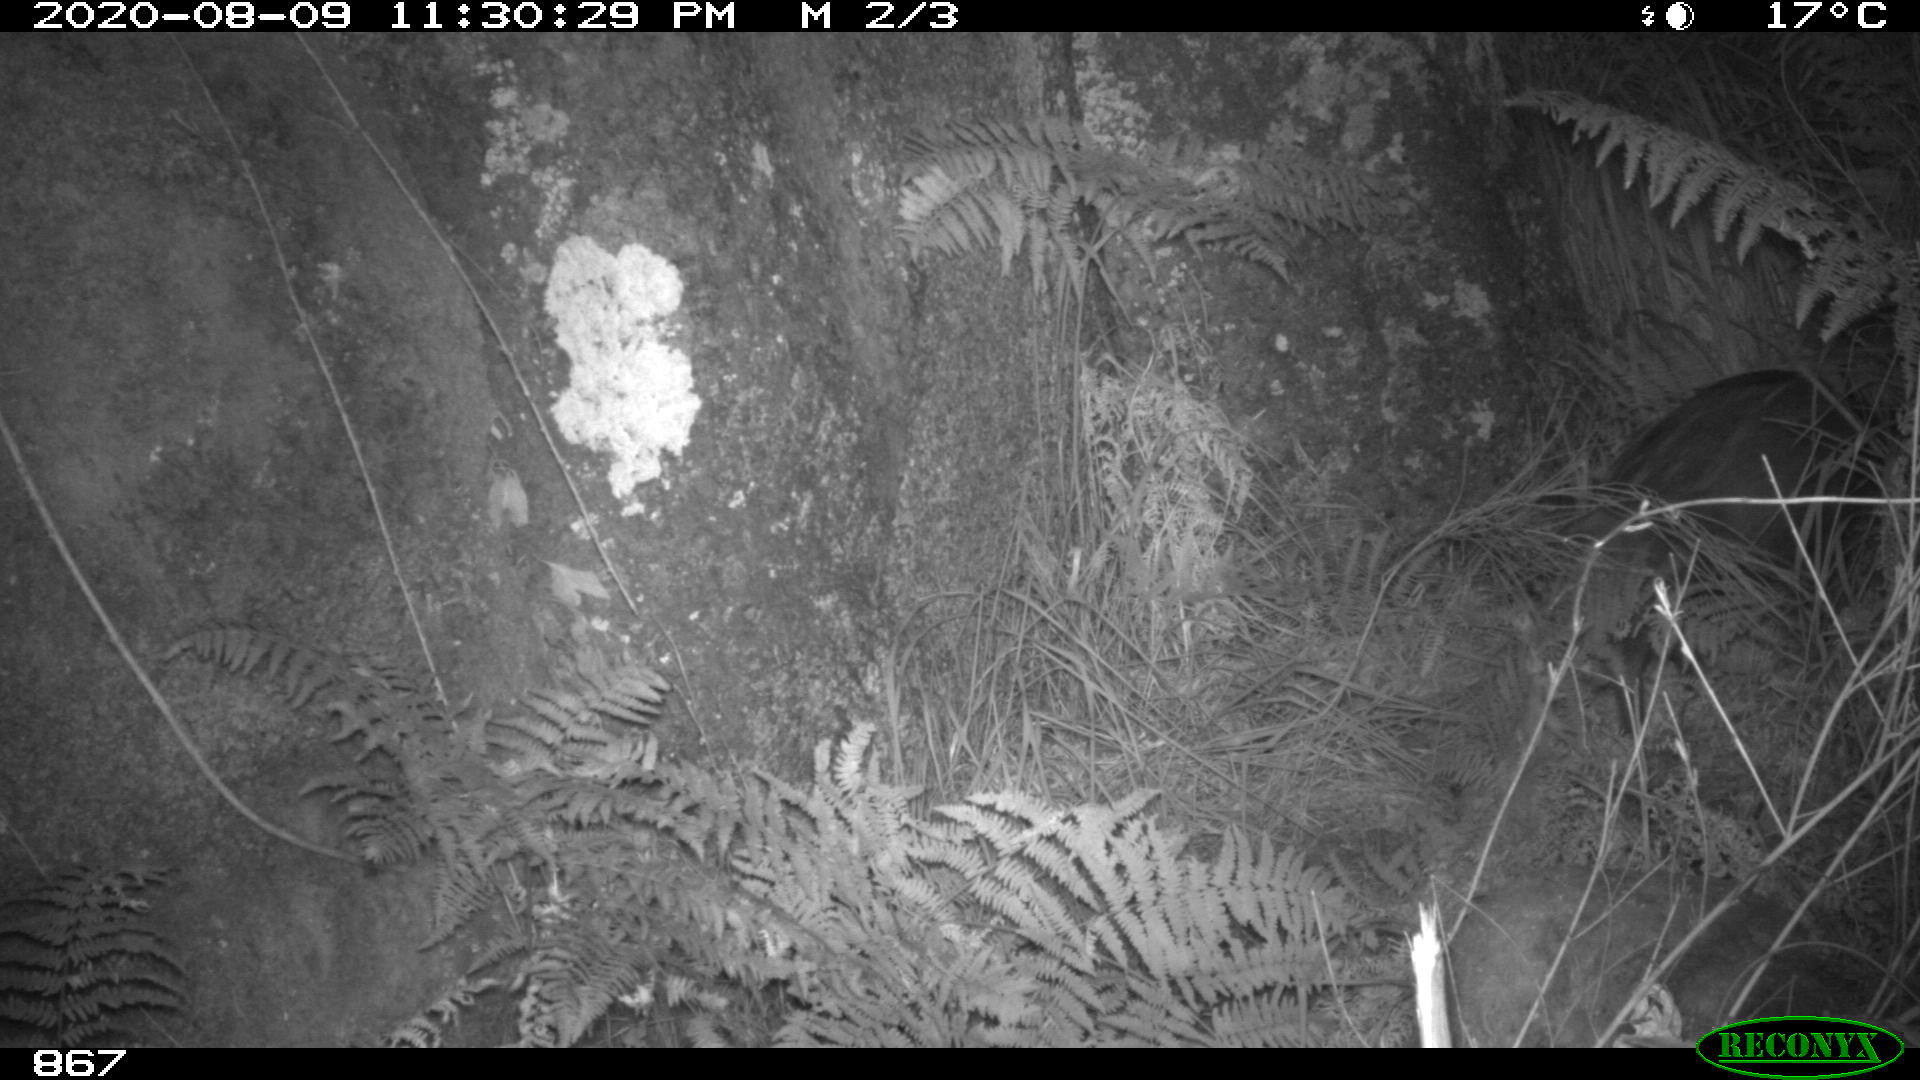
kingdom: Animalia
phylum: Chordata
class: Mammalia
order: Artiodactyla
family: Suidae
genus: Sus
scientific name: Sus scrofa
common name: Wild boar
